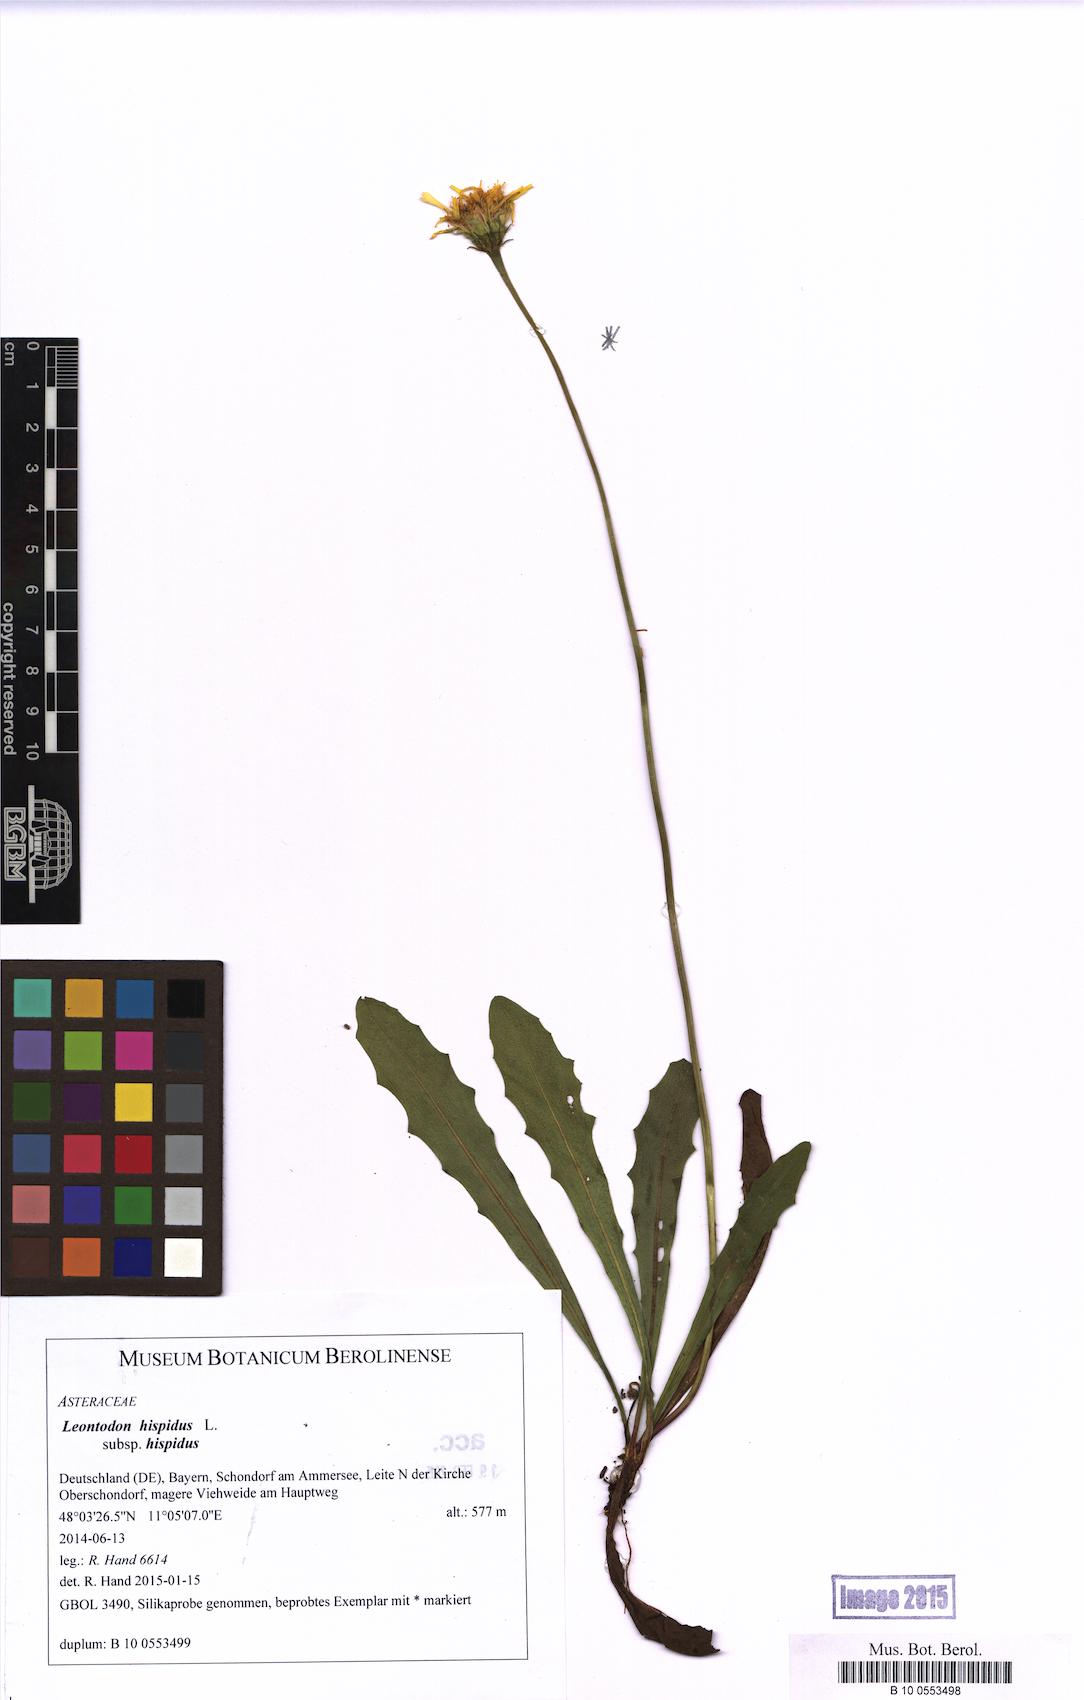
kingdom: Plantae
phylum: Tracheophyta
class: Magnoliopsida
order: Asterales
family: Asteraceae
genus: Leontodon
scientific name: Leontodon hispidus
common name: Rough hawkbit
